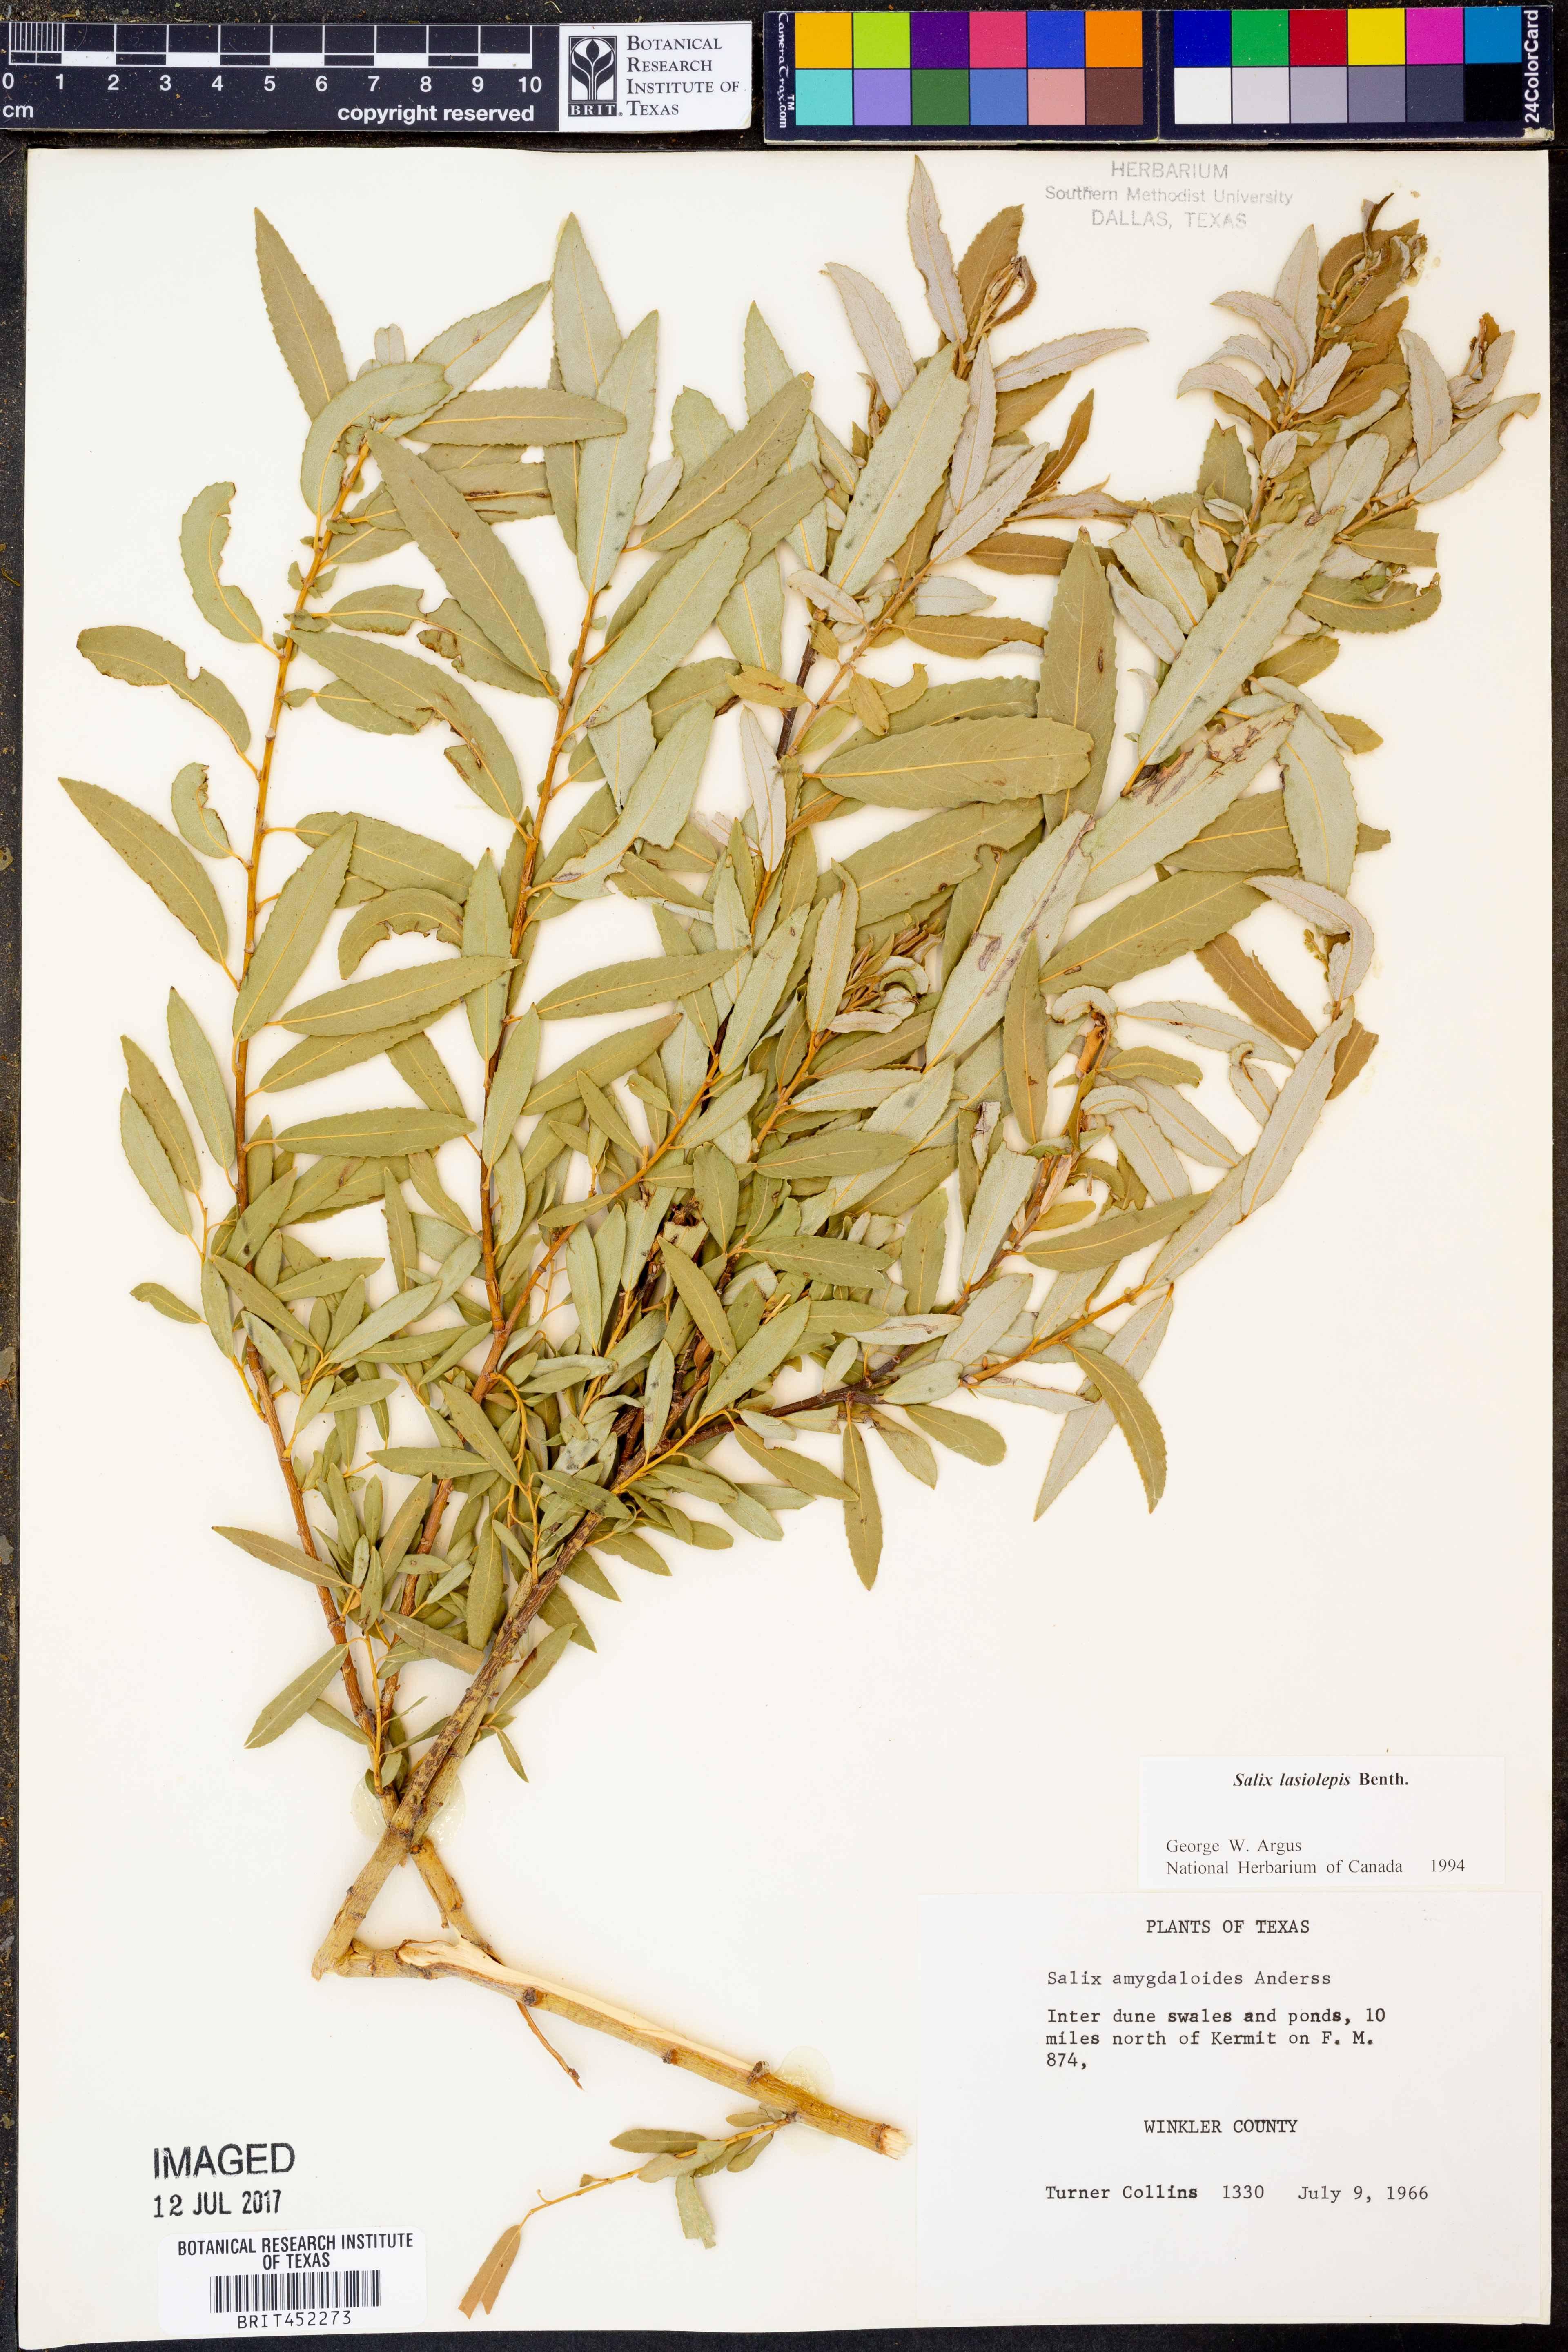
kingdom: Plantae
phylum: Tracheophyta
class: Magnoliopsida
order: Malpighiales
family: Salicaceae
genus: Salix
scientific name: Salix lasiolepis
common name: Arroyo willow
